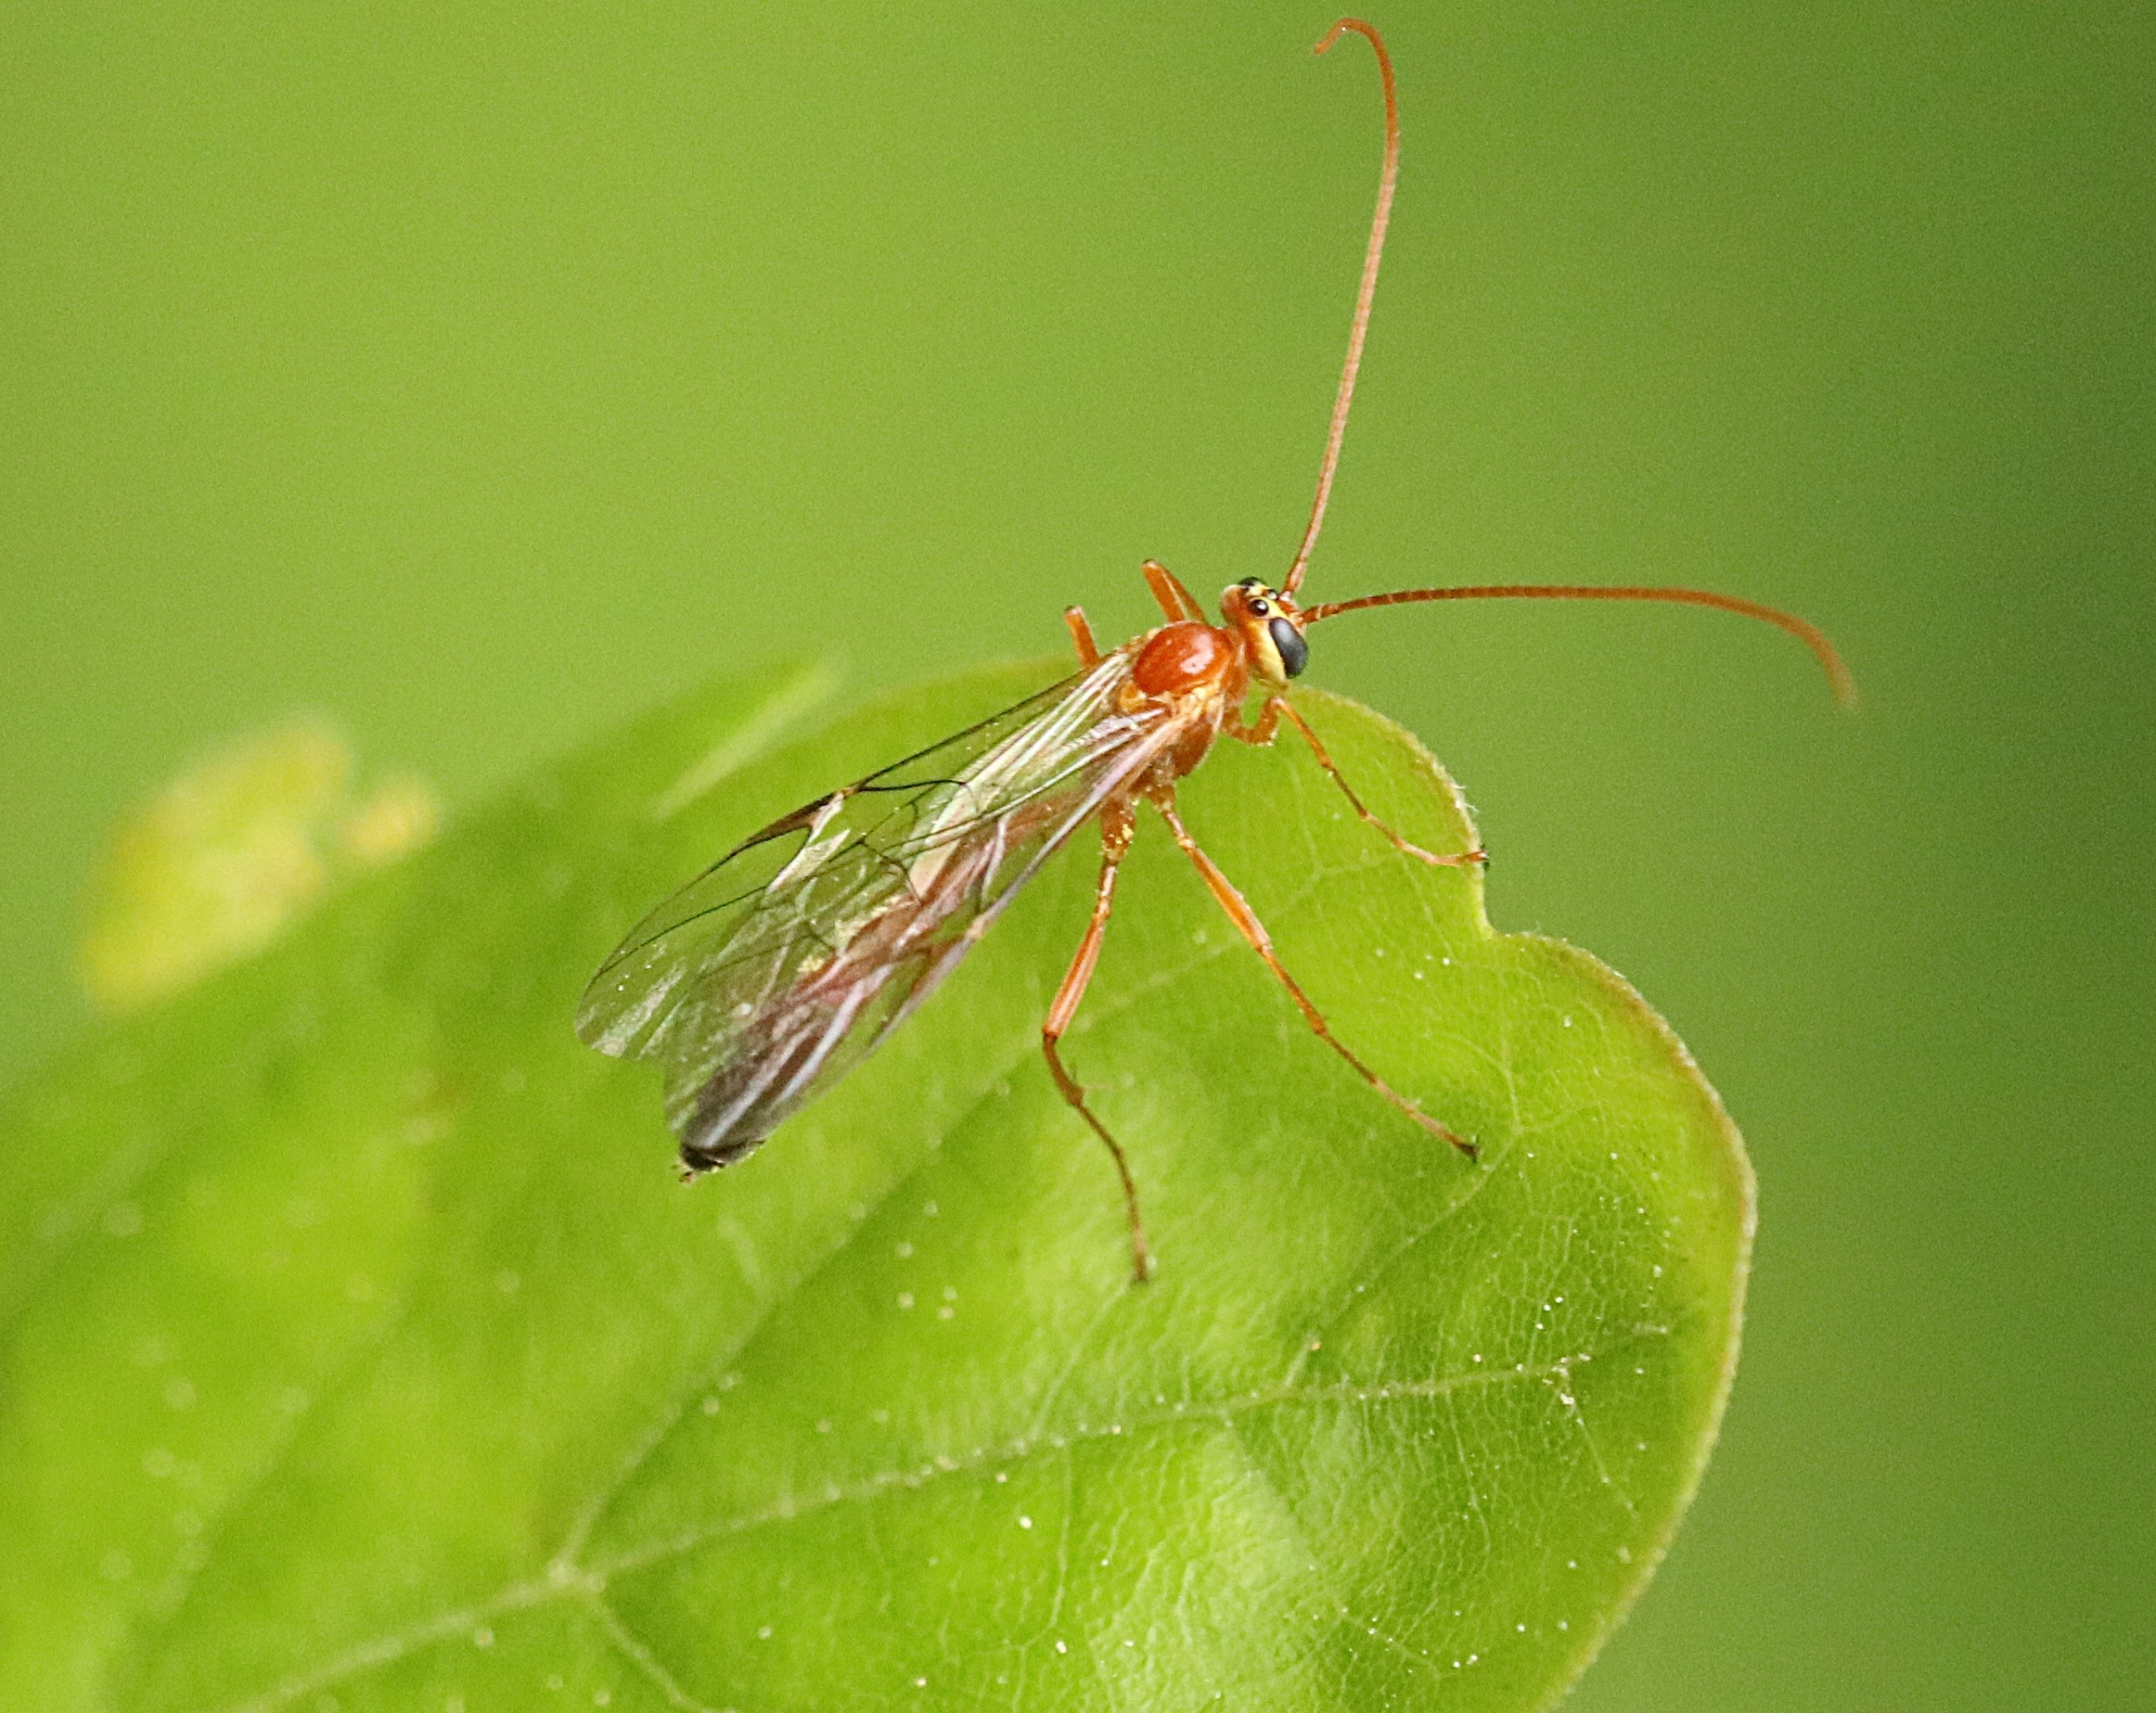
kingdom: Animalia
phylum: Arthropoda
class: Insecta
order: Hymenoptera
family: Ichneumonidae
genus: Ophion
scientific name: Ophion minutus
